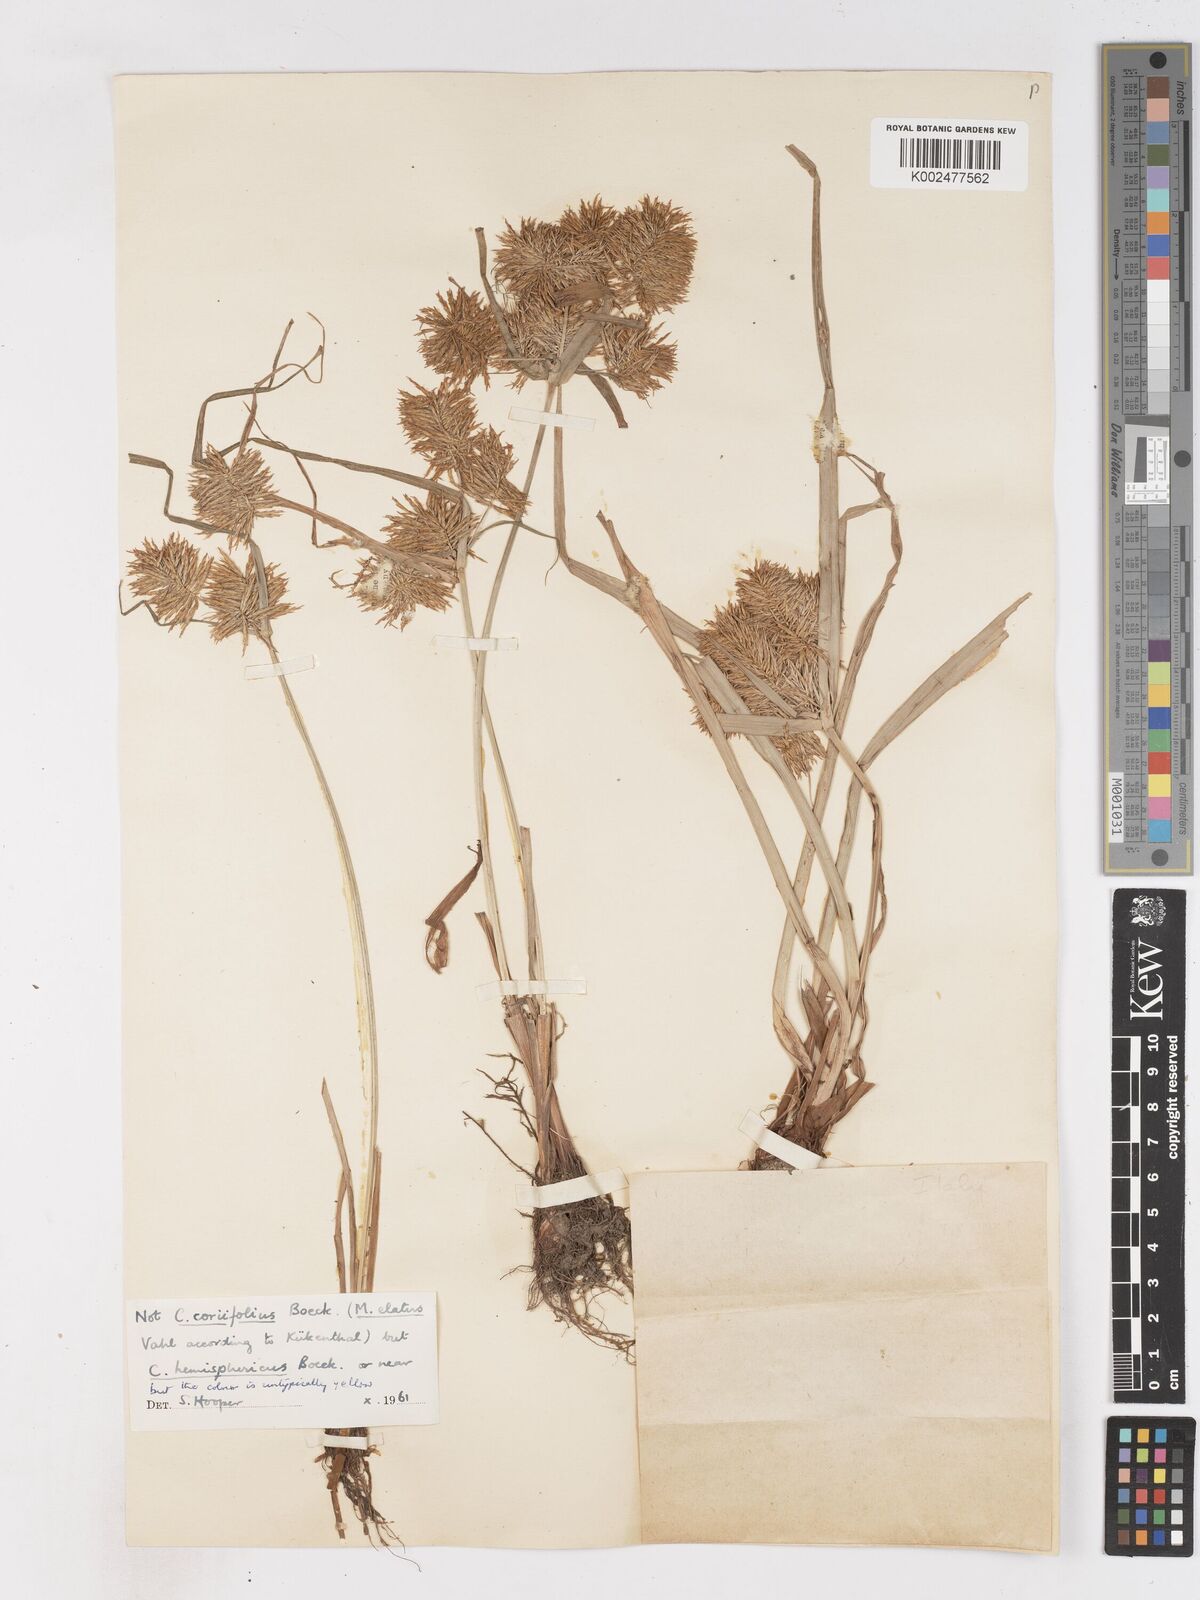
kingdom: Plantae
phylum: Tracheophyta
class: Liliopsida
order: Poales
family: Cyperaceae
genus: Cyperus
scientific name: Cyperus hemisphaericus
